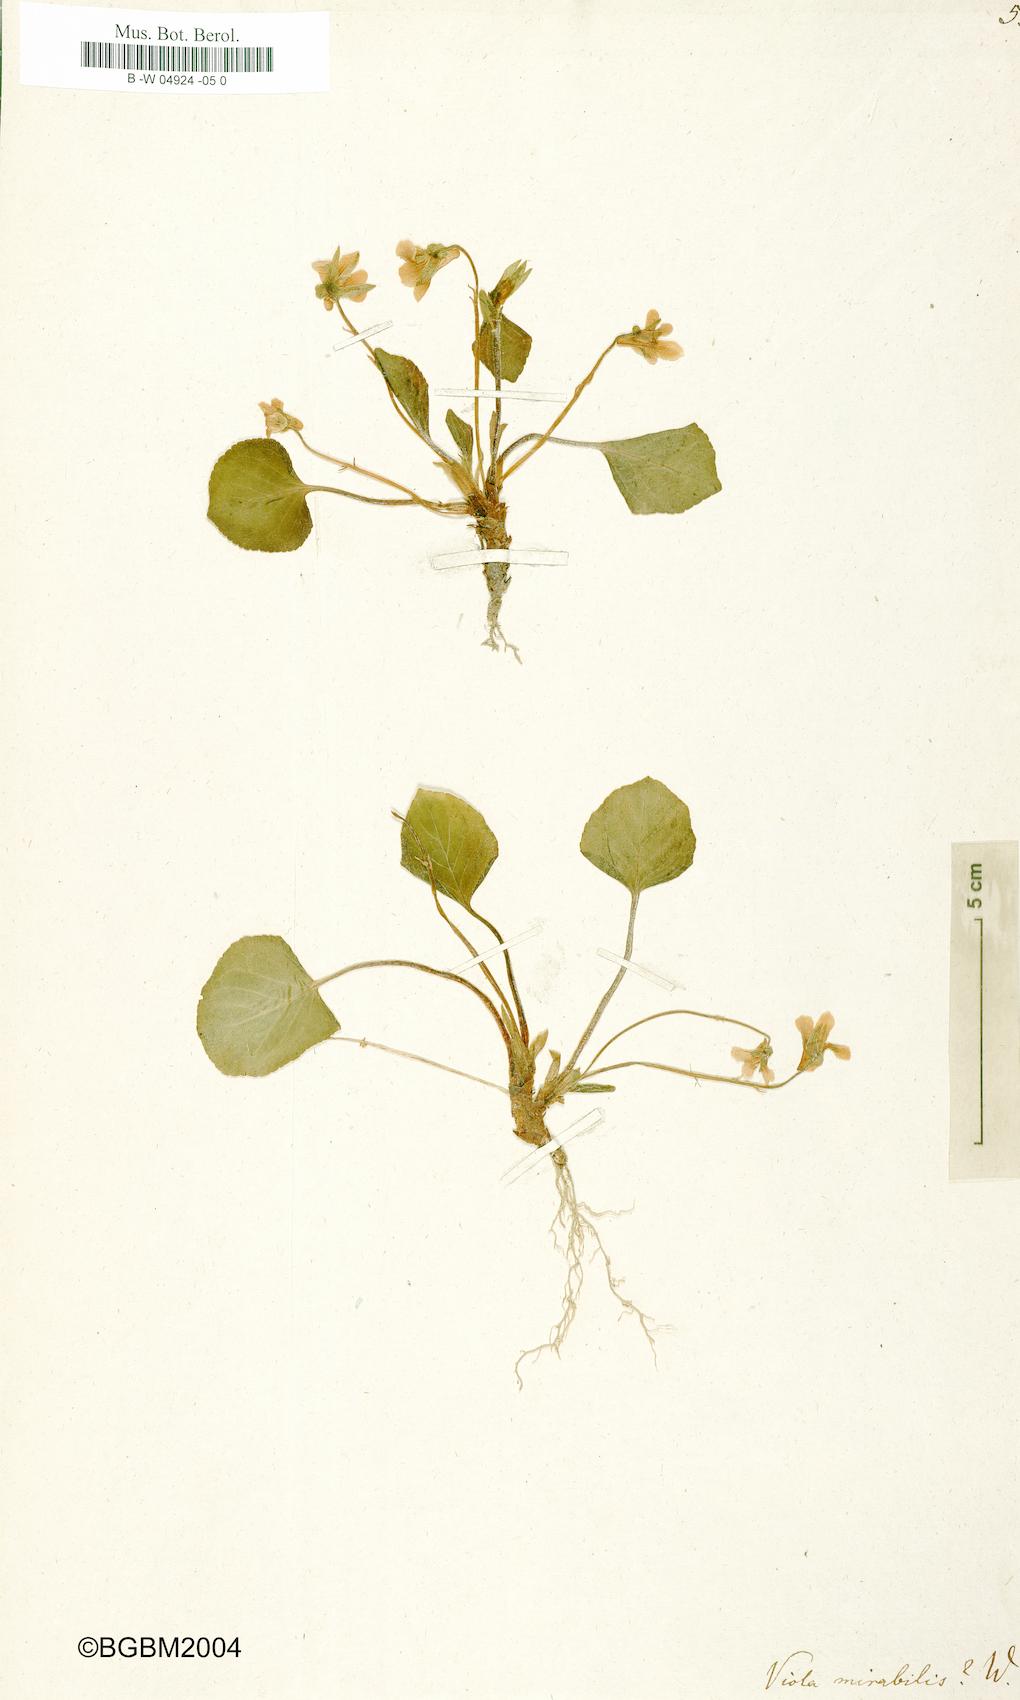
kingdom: Plantae
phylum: Tracheophyta
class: Magnoliopsida
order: Malpighiales
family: Violaceae
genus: Viola
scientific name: Viola mirabilis
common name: Wonder violet
